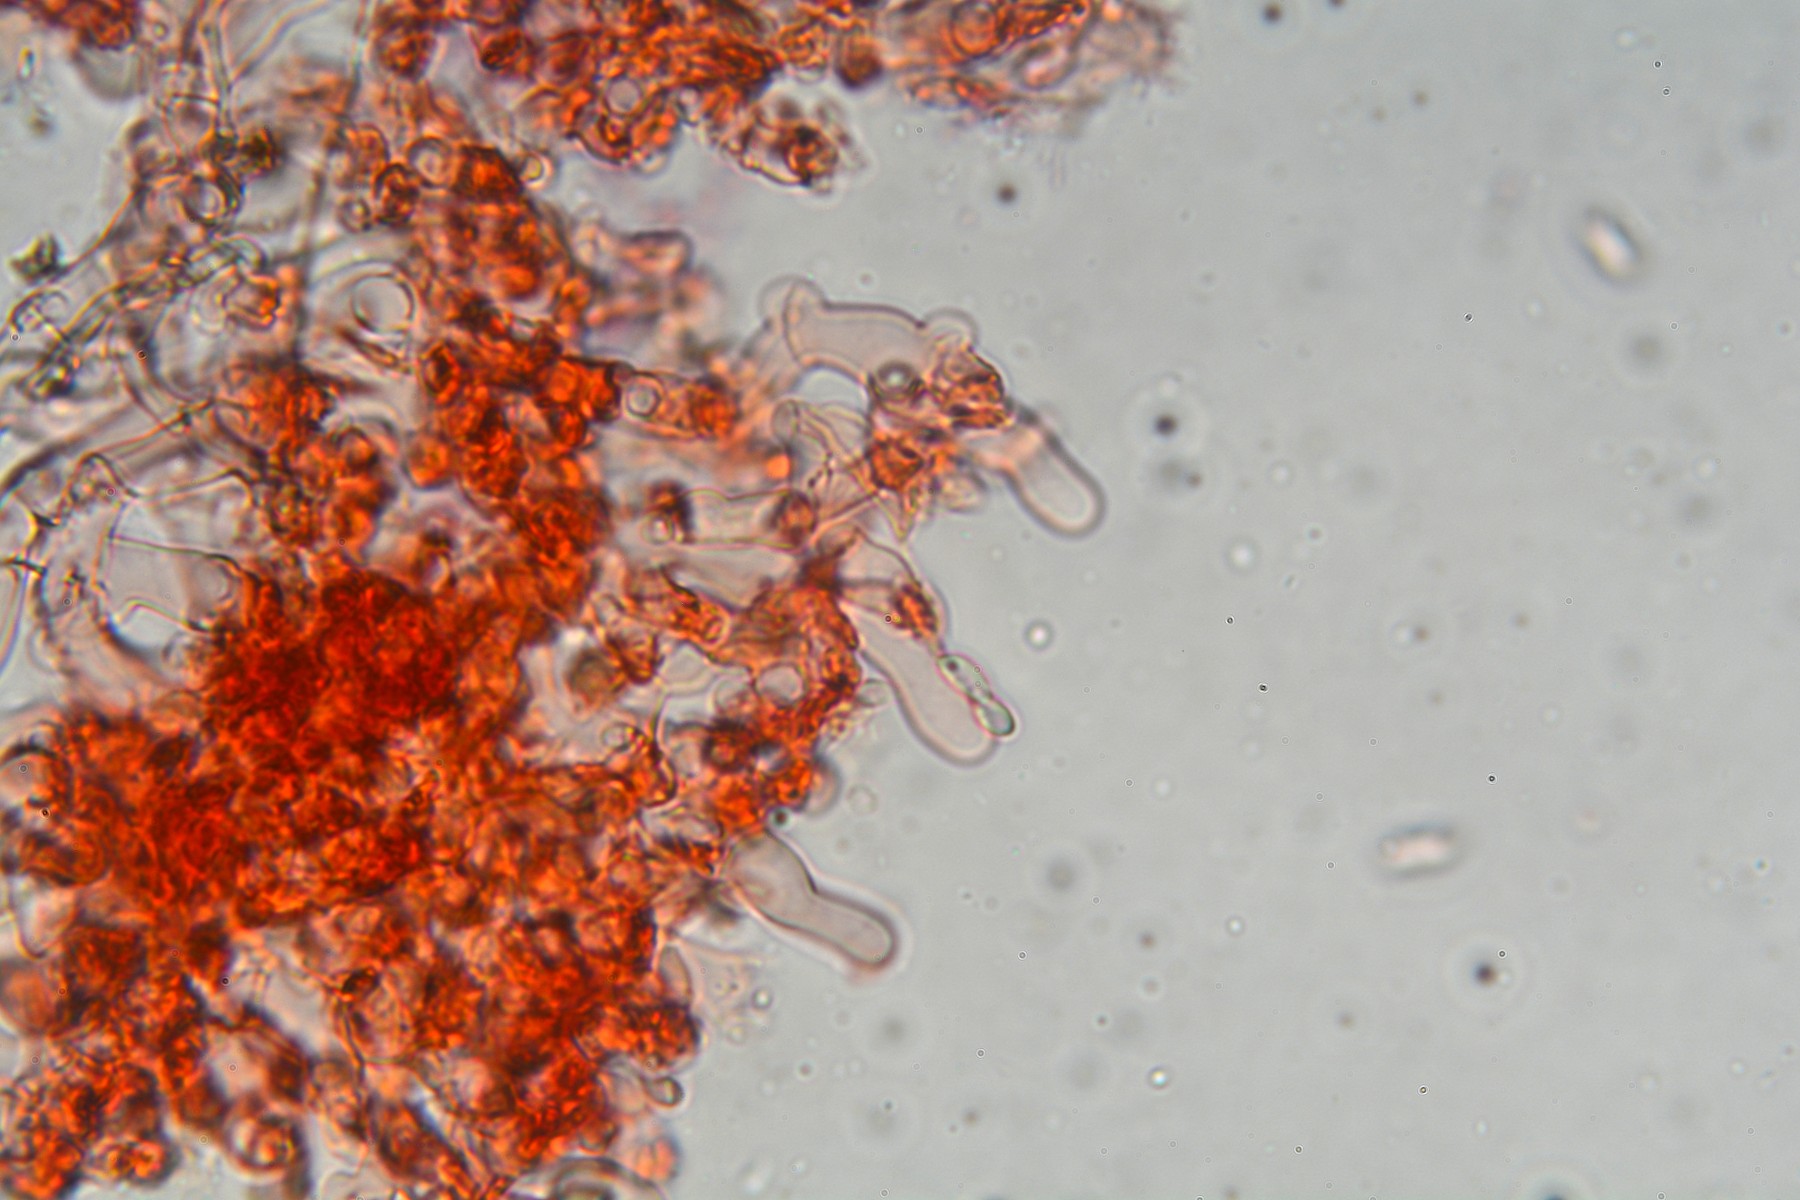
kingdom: Fungi
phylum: Basidiomycota
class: Agaricomycetes
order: Cantharellales
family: Botryobasidiaceae
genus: Botryobasidium
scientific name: Botryobasidium subcoronatum
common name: almindelig spindhinde
